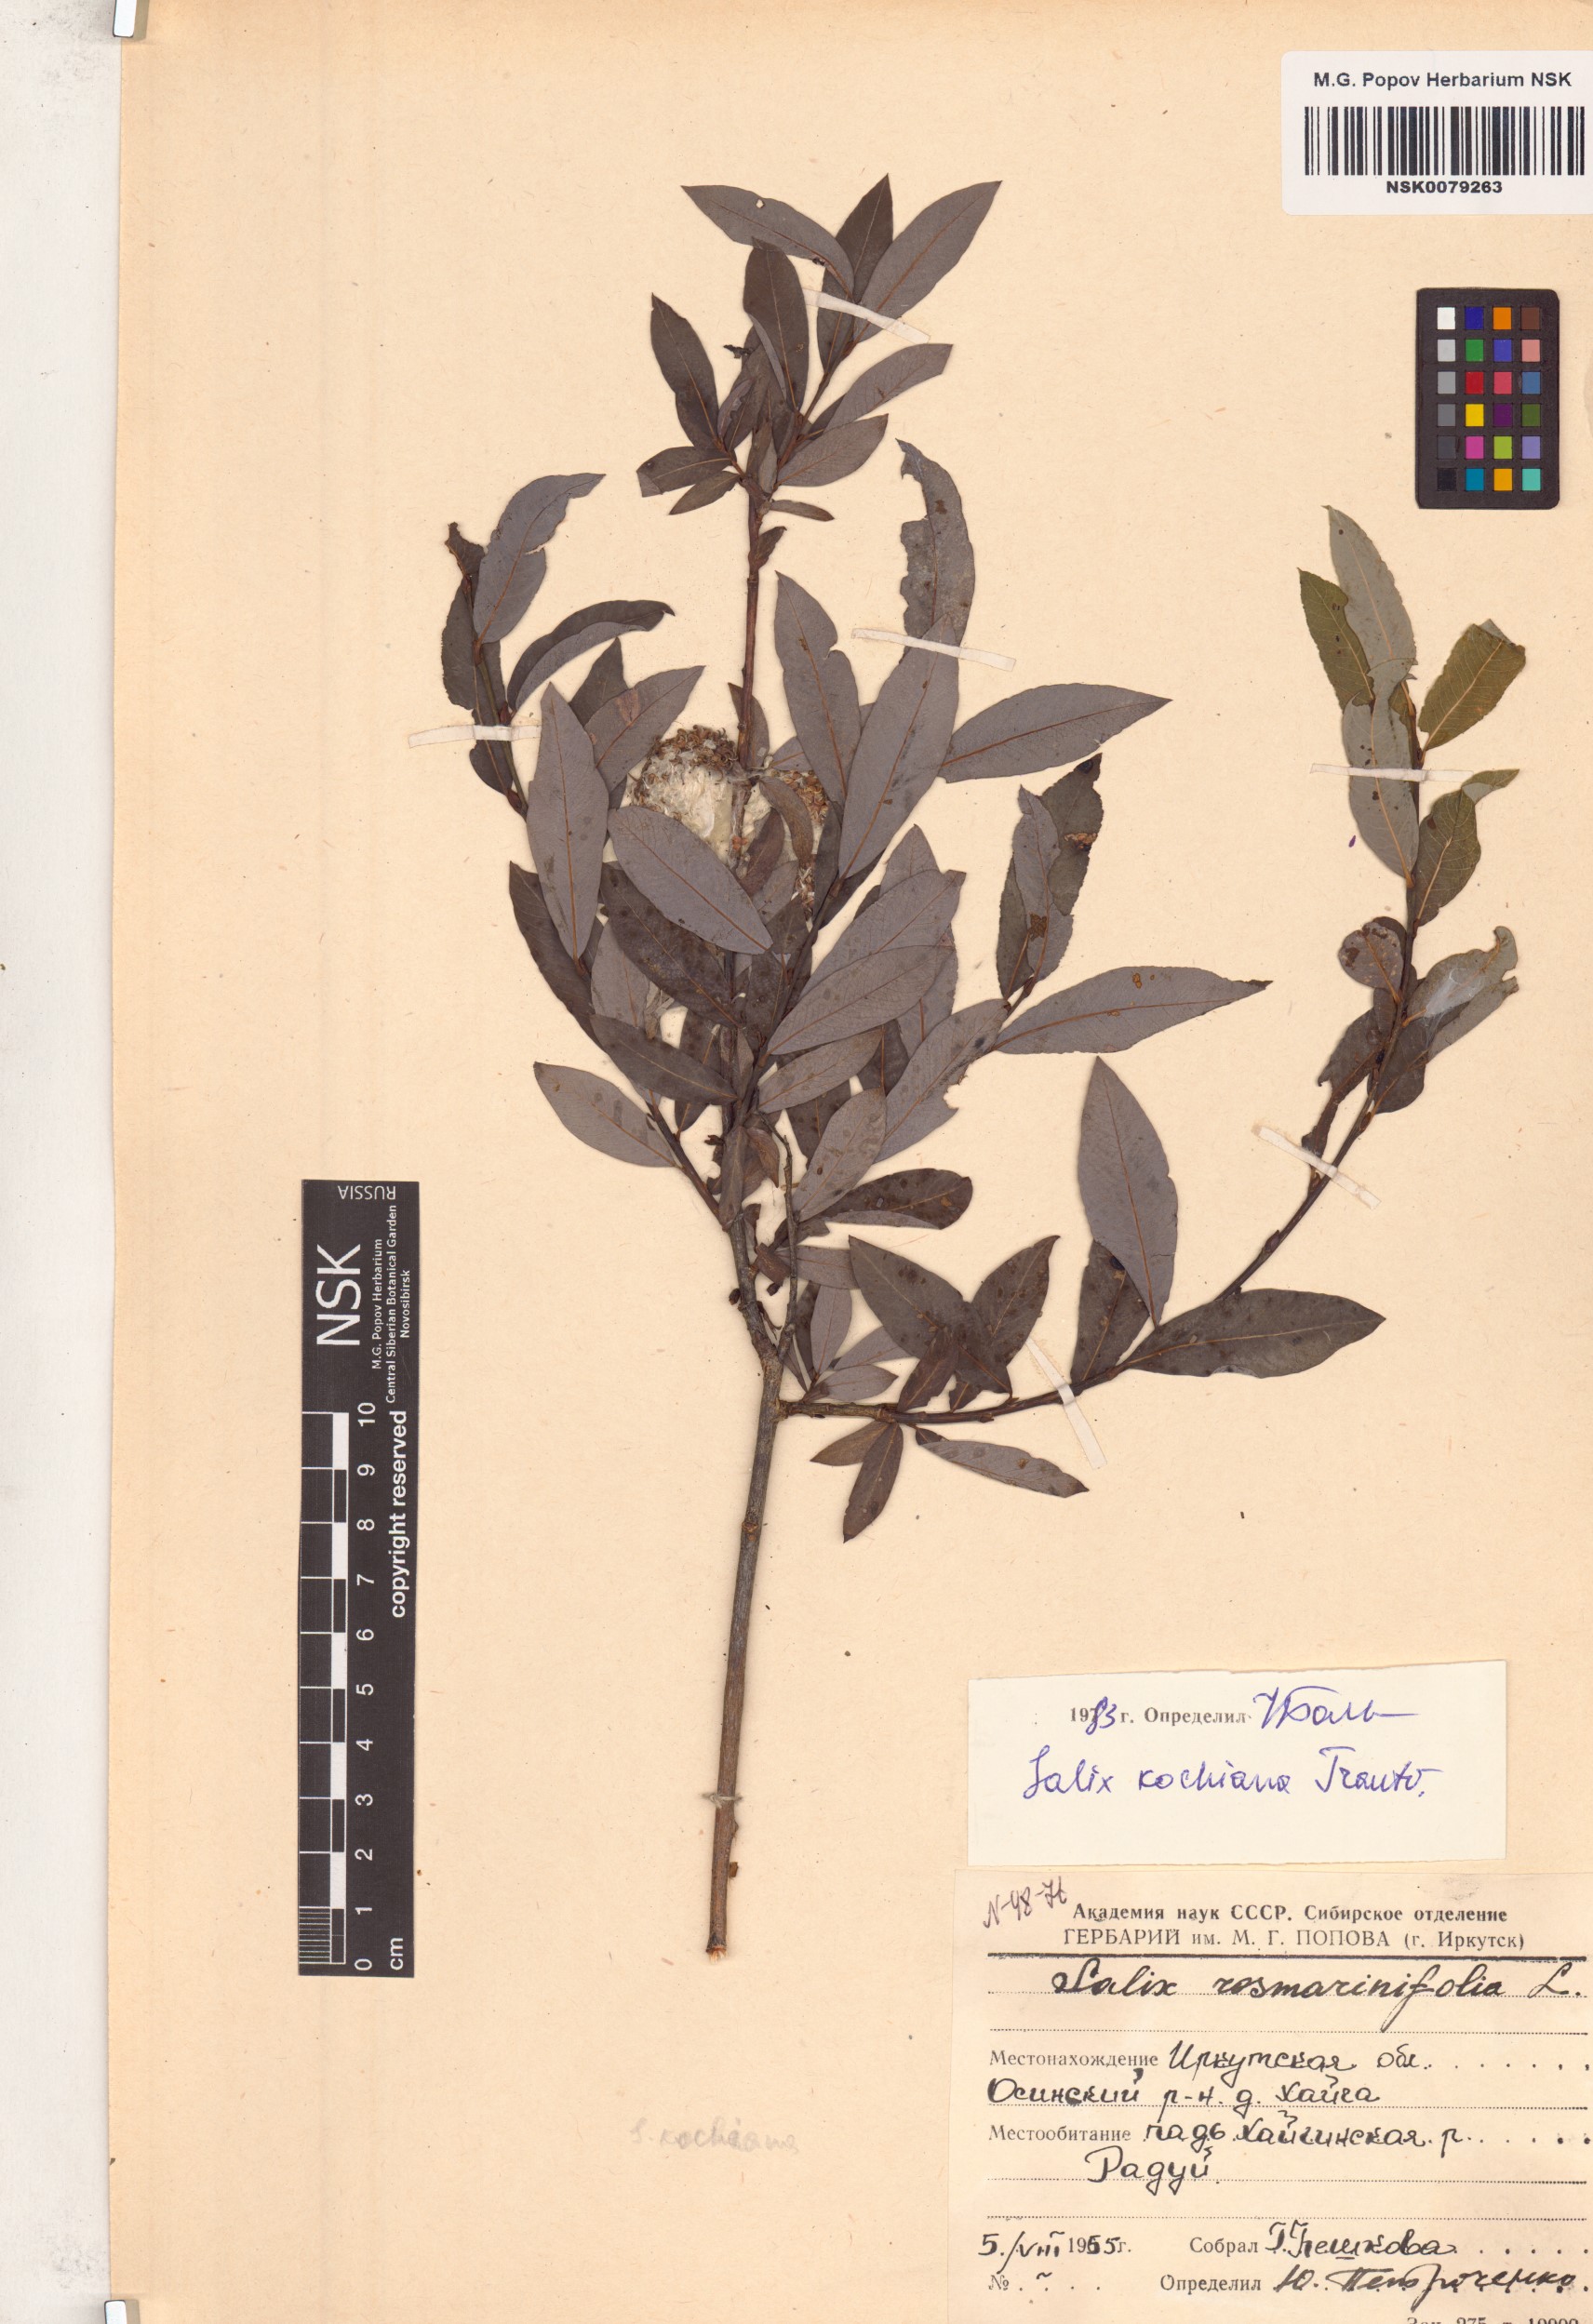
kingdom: Plantae
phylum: Tracheophyta
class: Magnoliopsida
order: Malpighiales
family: Salicaceae
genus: Salix
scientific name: Salix kochiana
